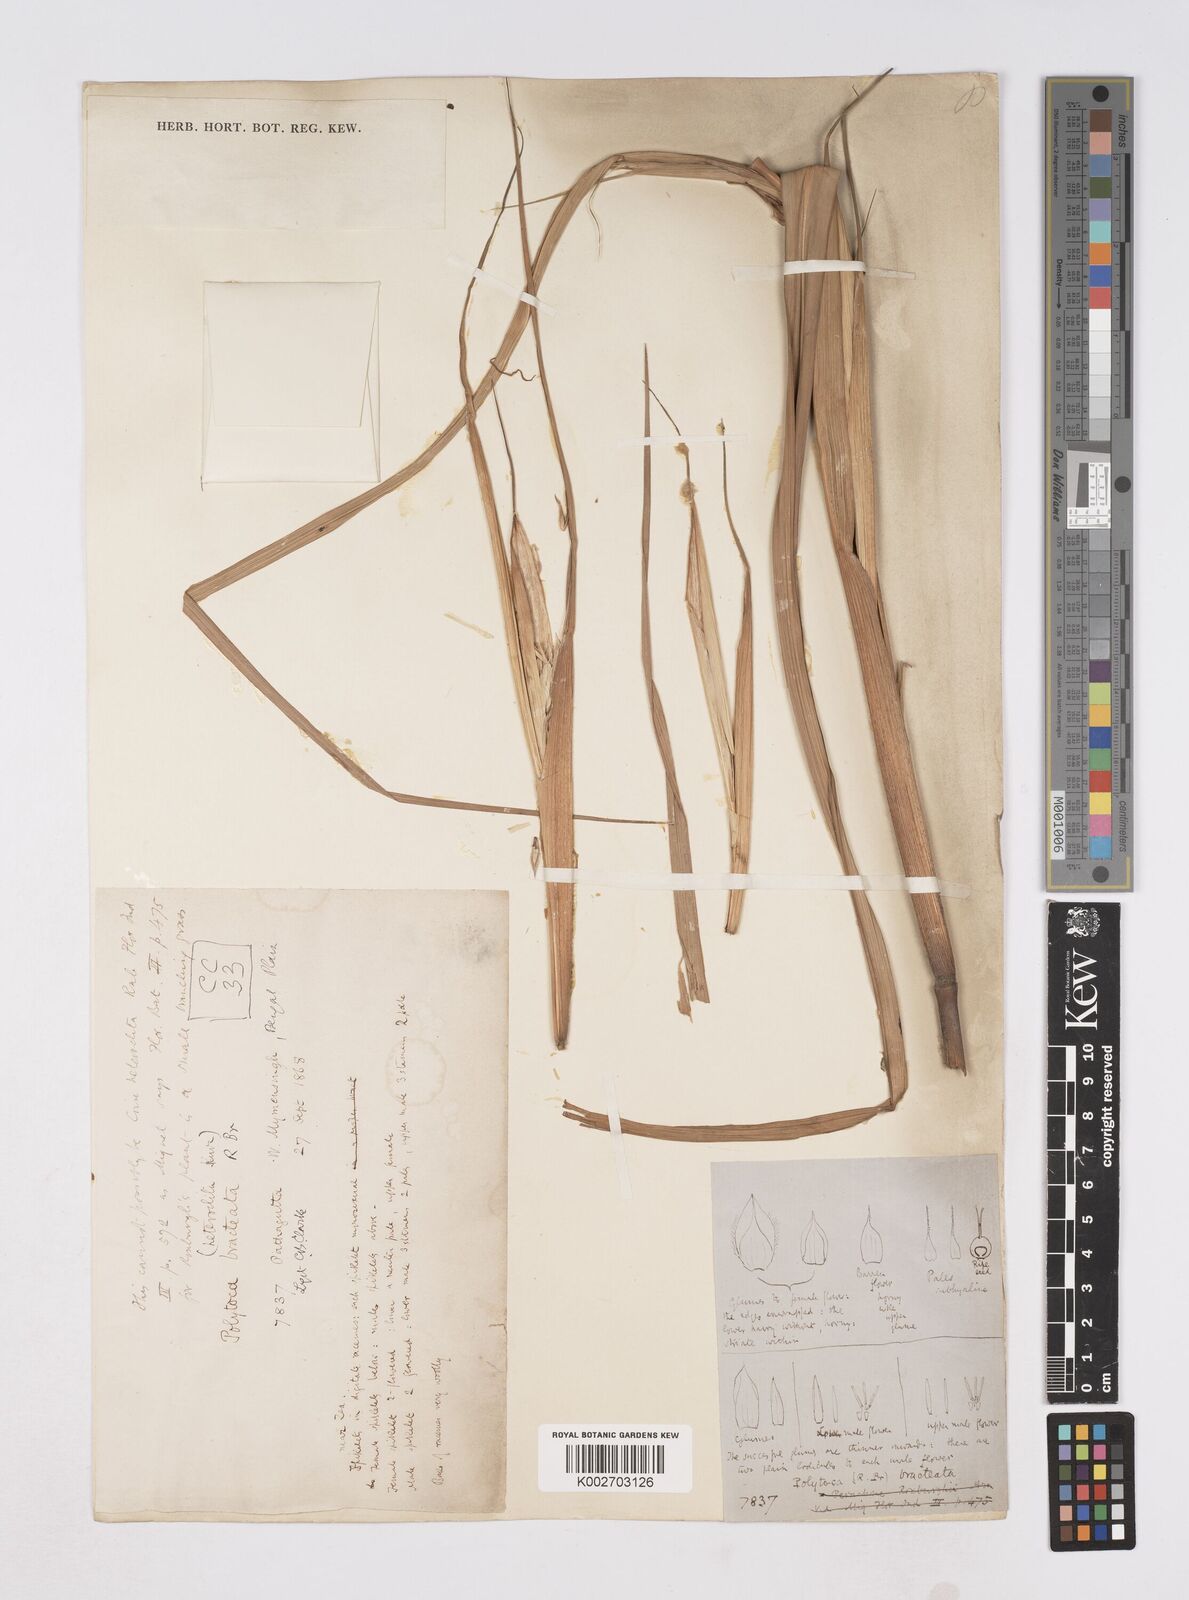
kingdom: Plantae
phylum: Tracheophyta
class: Liliopsida
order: Poales
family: Poaceae
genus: Polytoca
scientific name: Polytoca digitata
